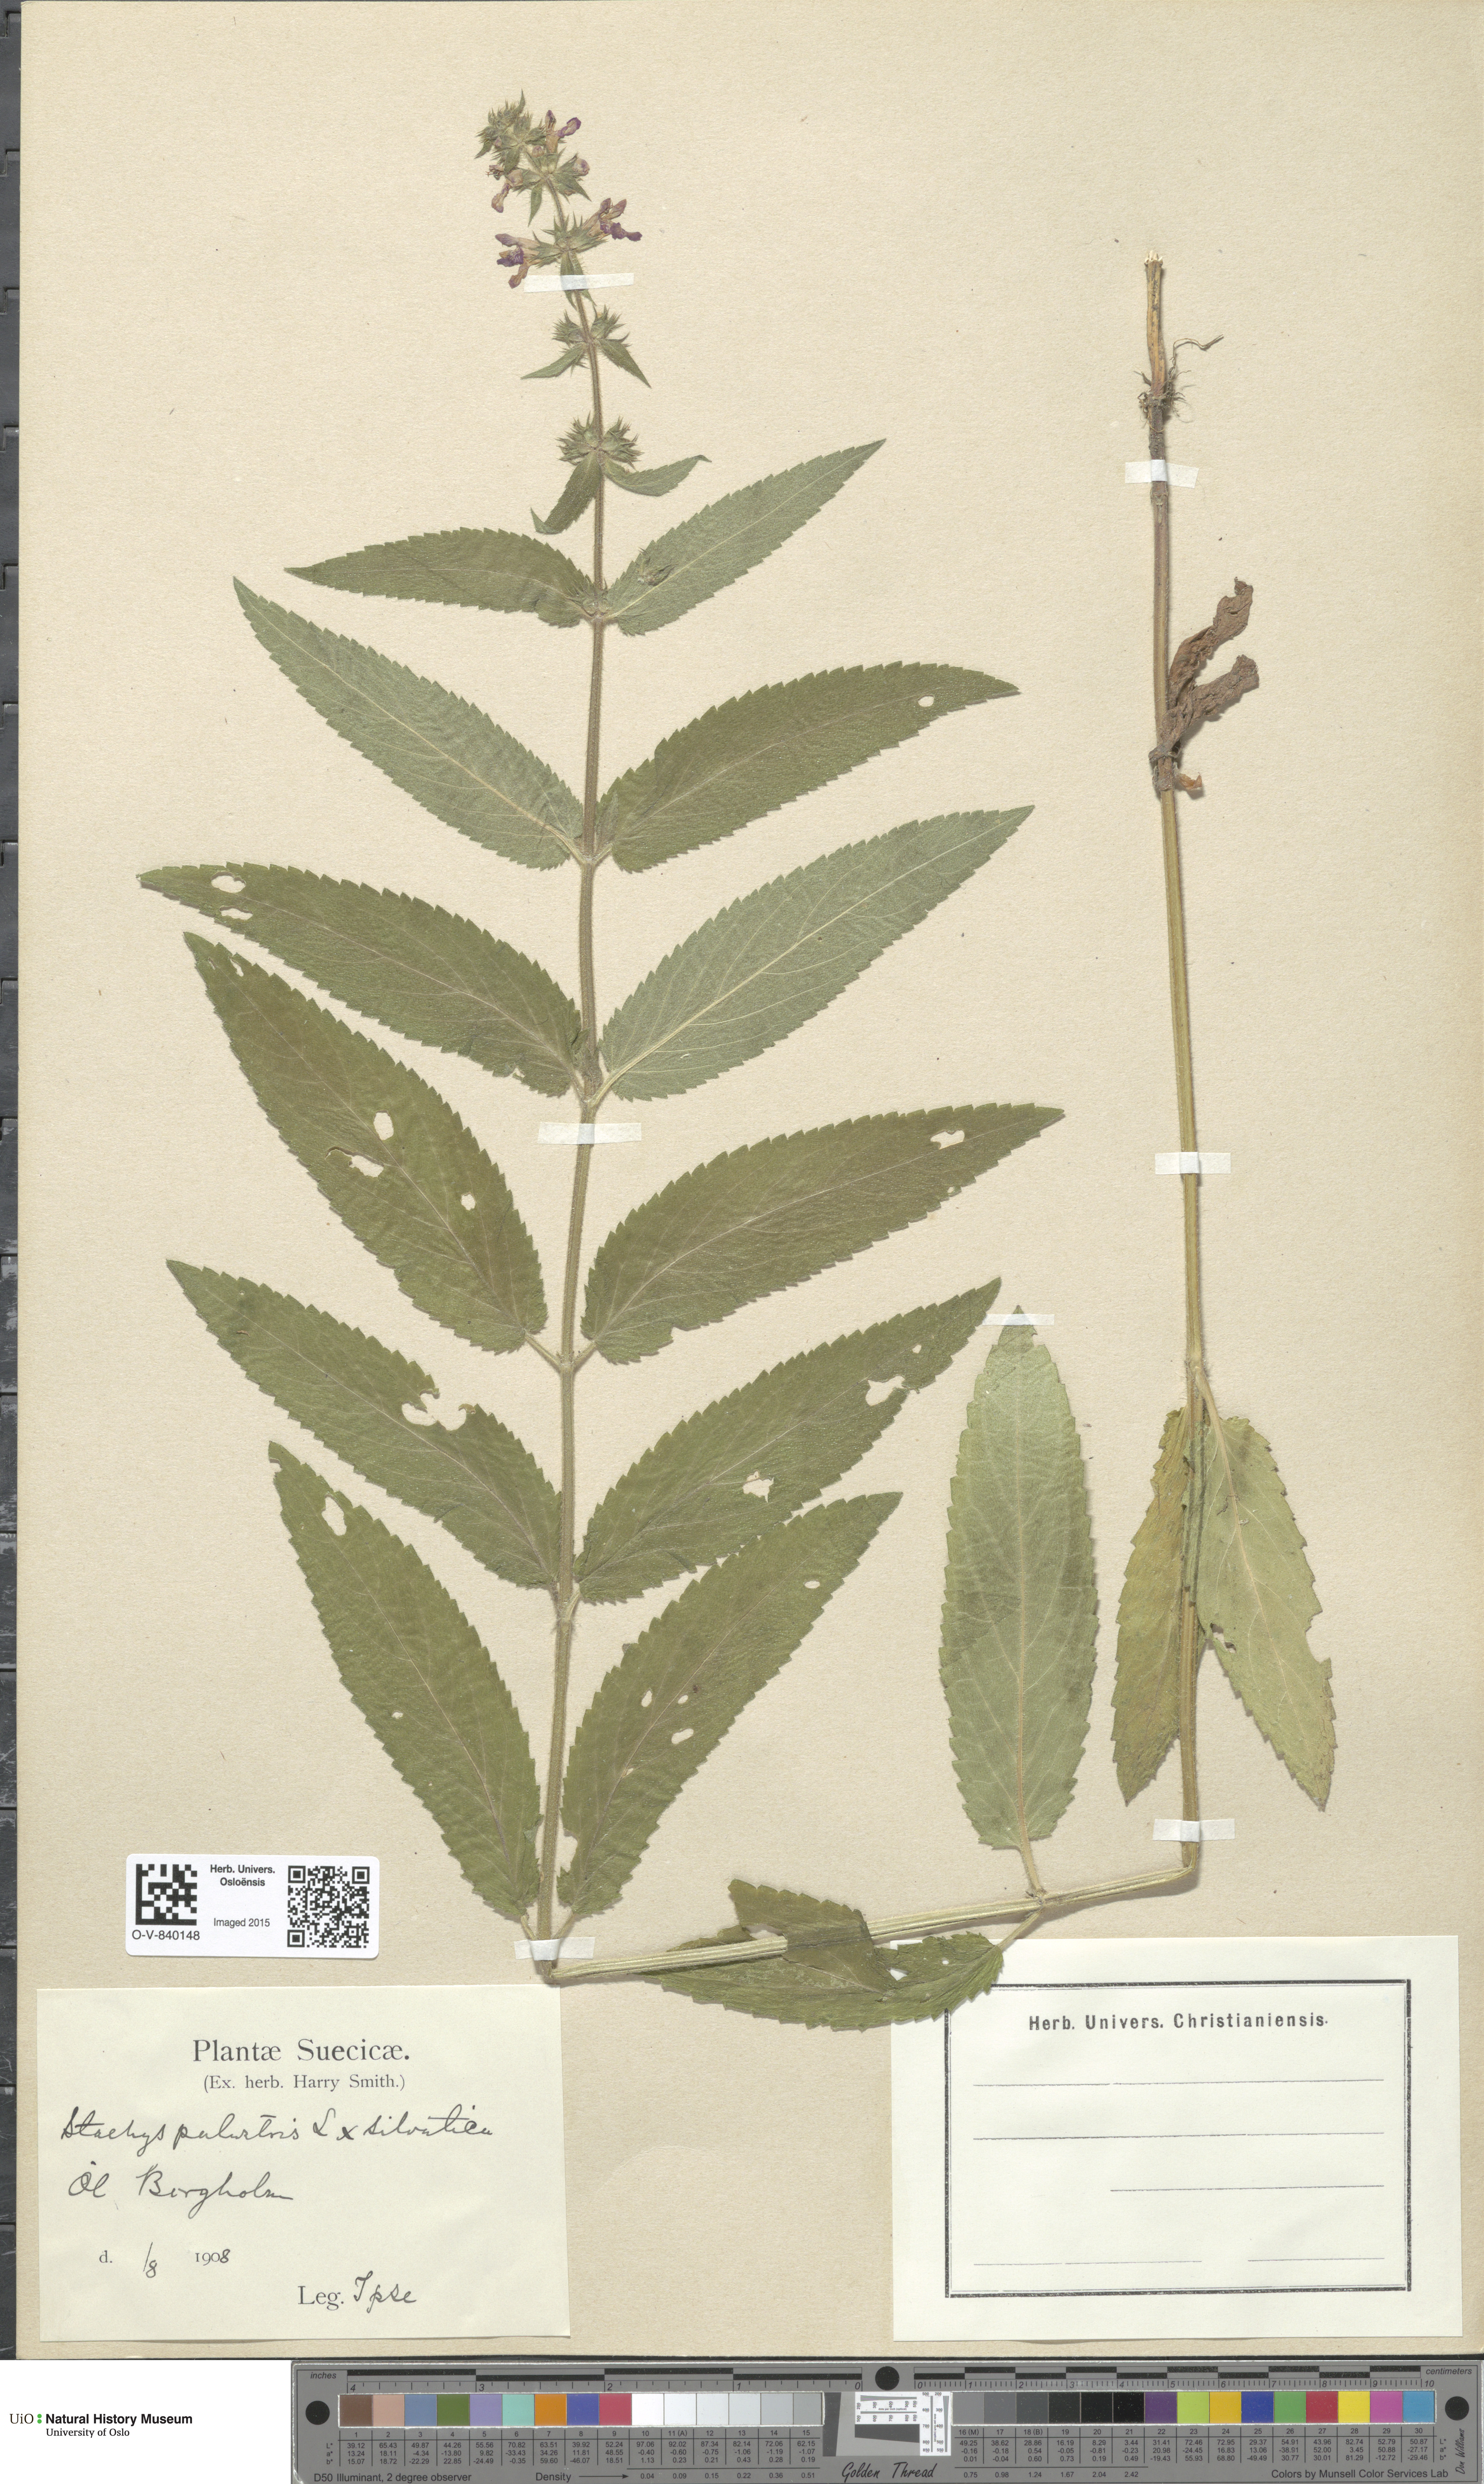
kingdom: Plantae
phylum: Tracheophyta
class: Magnoliopsida
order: Lamiales
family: Lamiaceae
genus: Stachys
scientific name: Stachys
